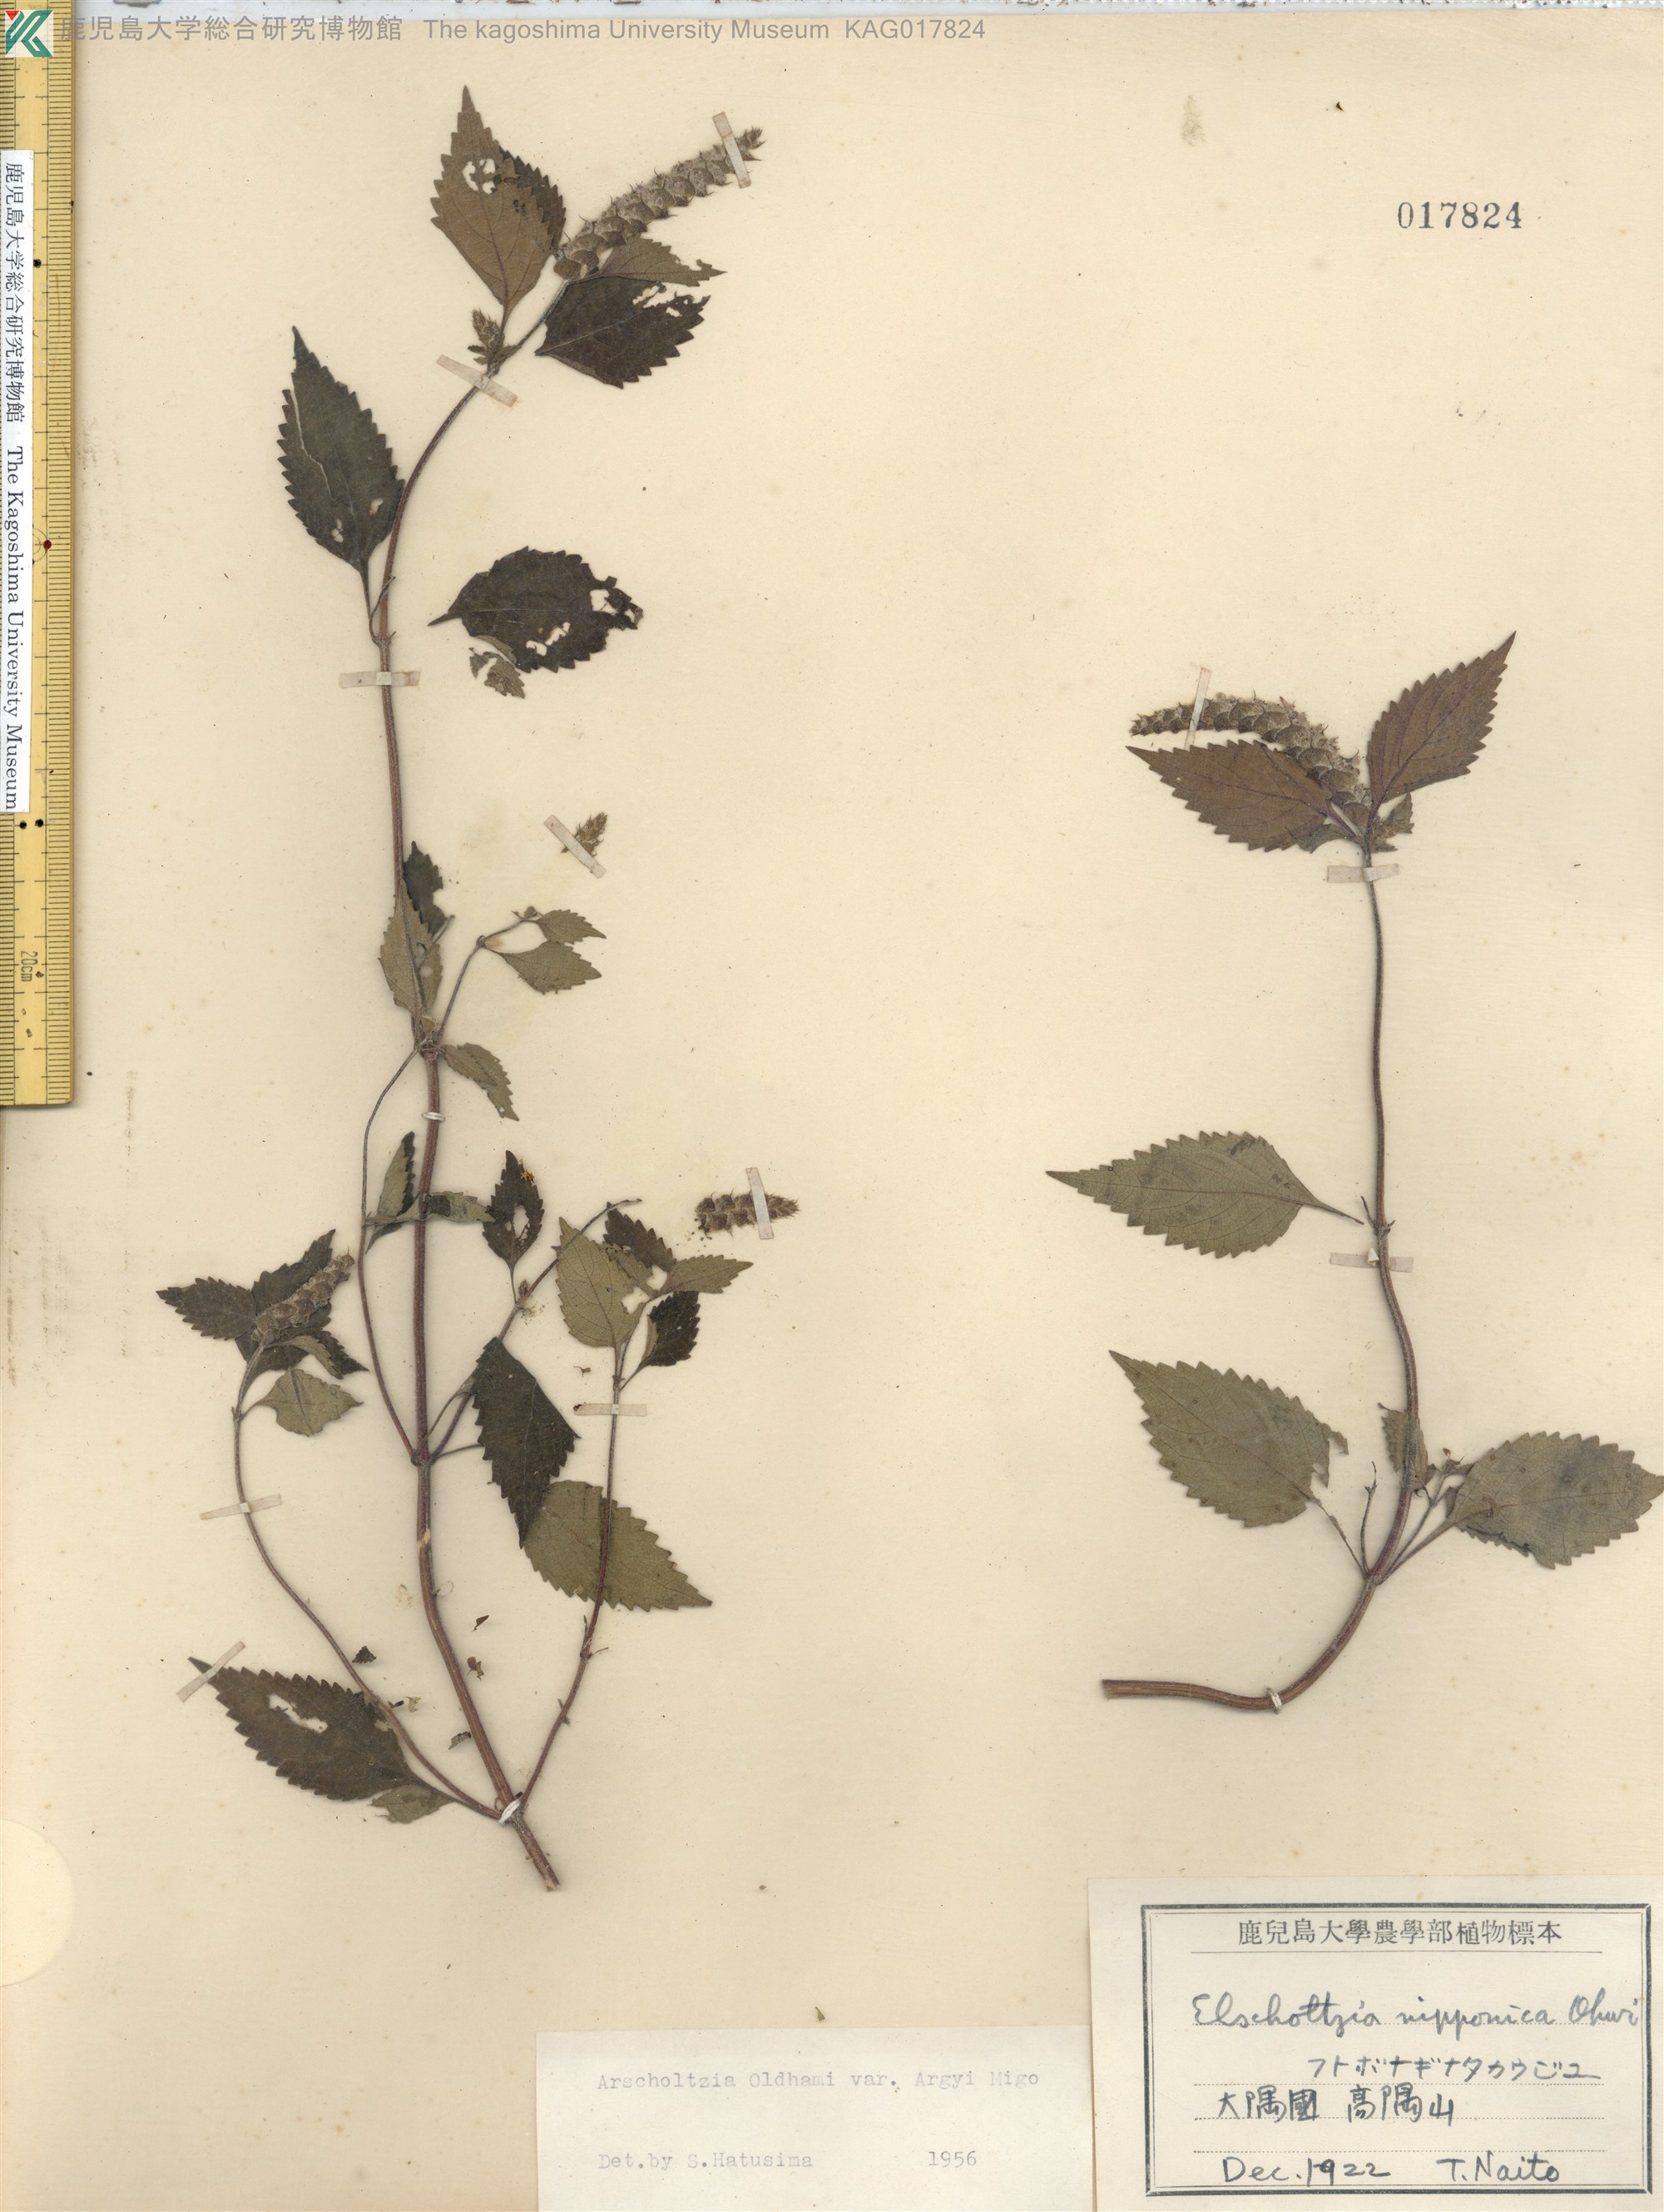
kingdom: Plantae
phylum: Tracheophyta
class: Magnoliopsida
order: Lamiales
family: Lamiaceae
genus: Elsholtzia
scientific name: Elsholtzia nipponica
